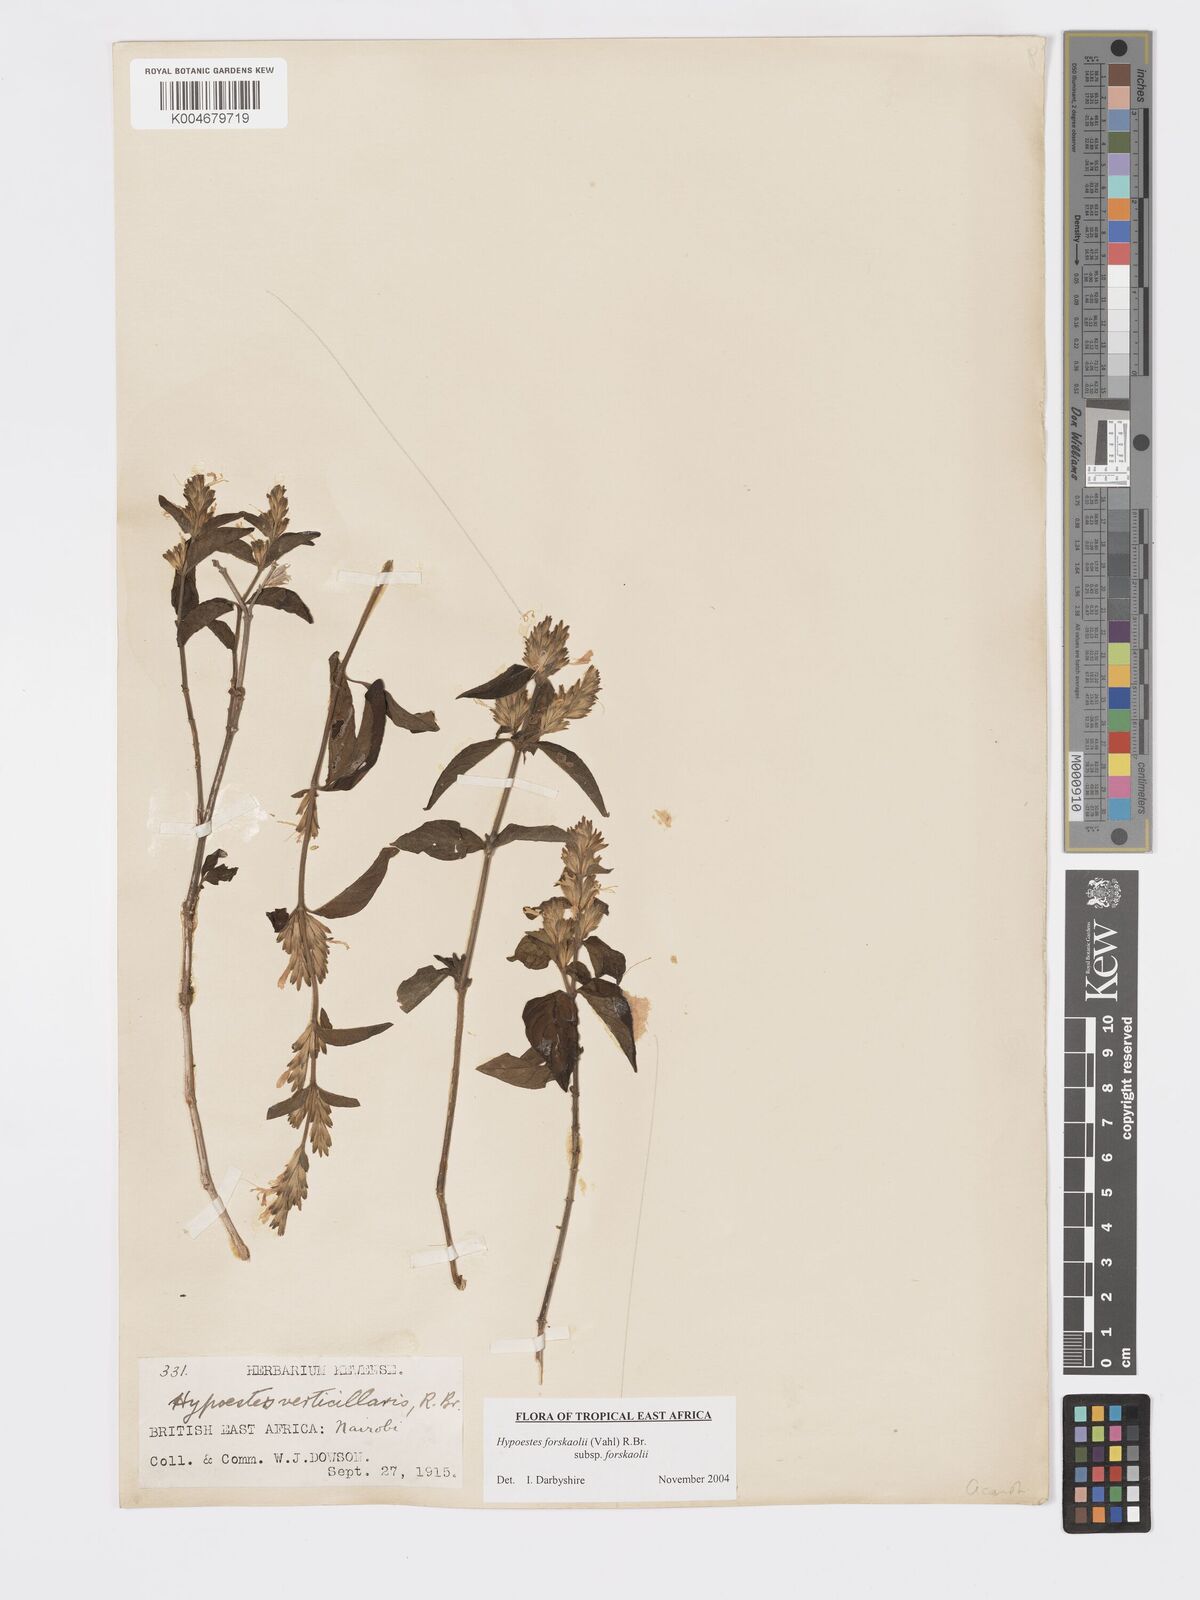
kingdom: Plantae
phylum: Tracheophyta
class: Magnoliopsida
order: Lamiales
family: Acanthaceae
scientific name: Acanthaceae
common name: Acanthaceae
